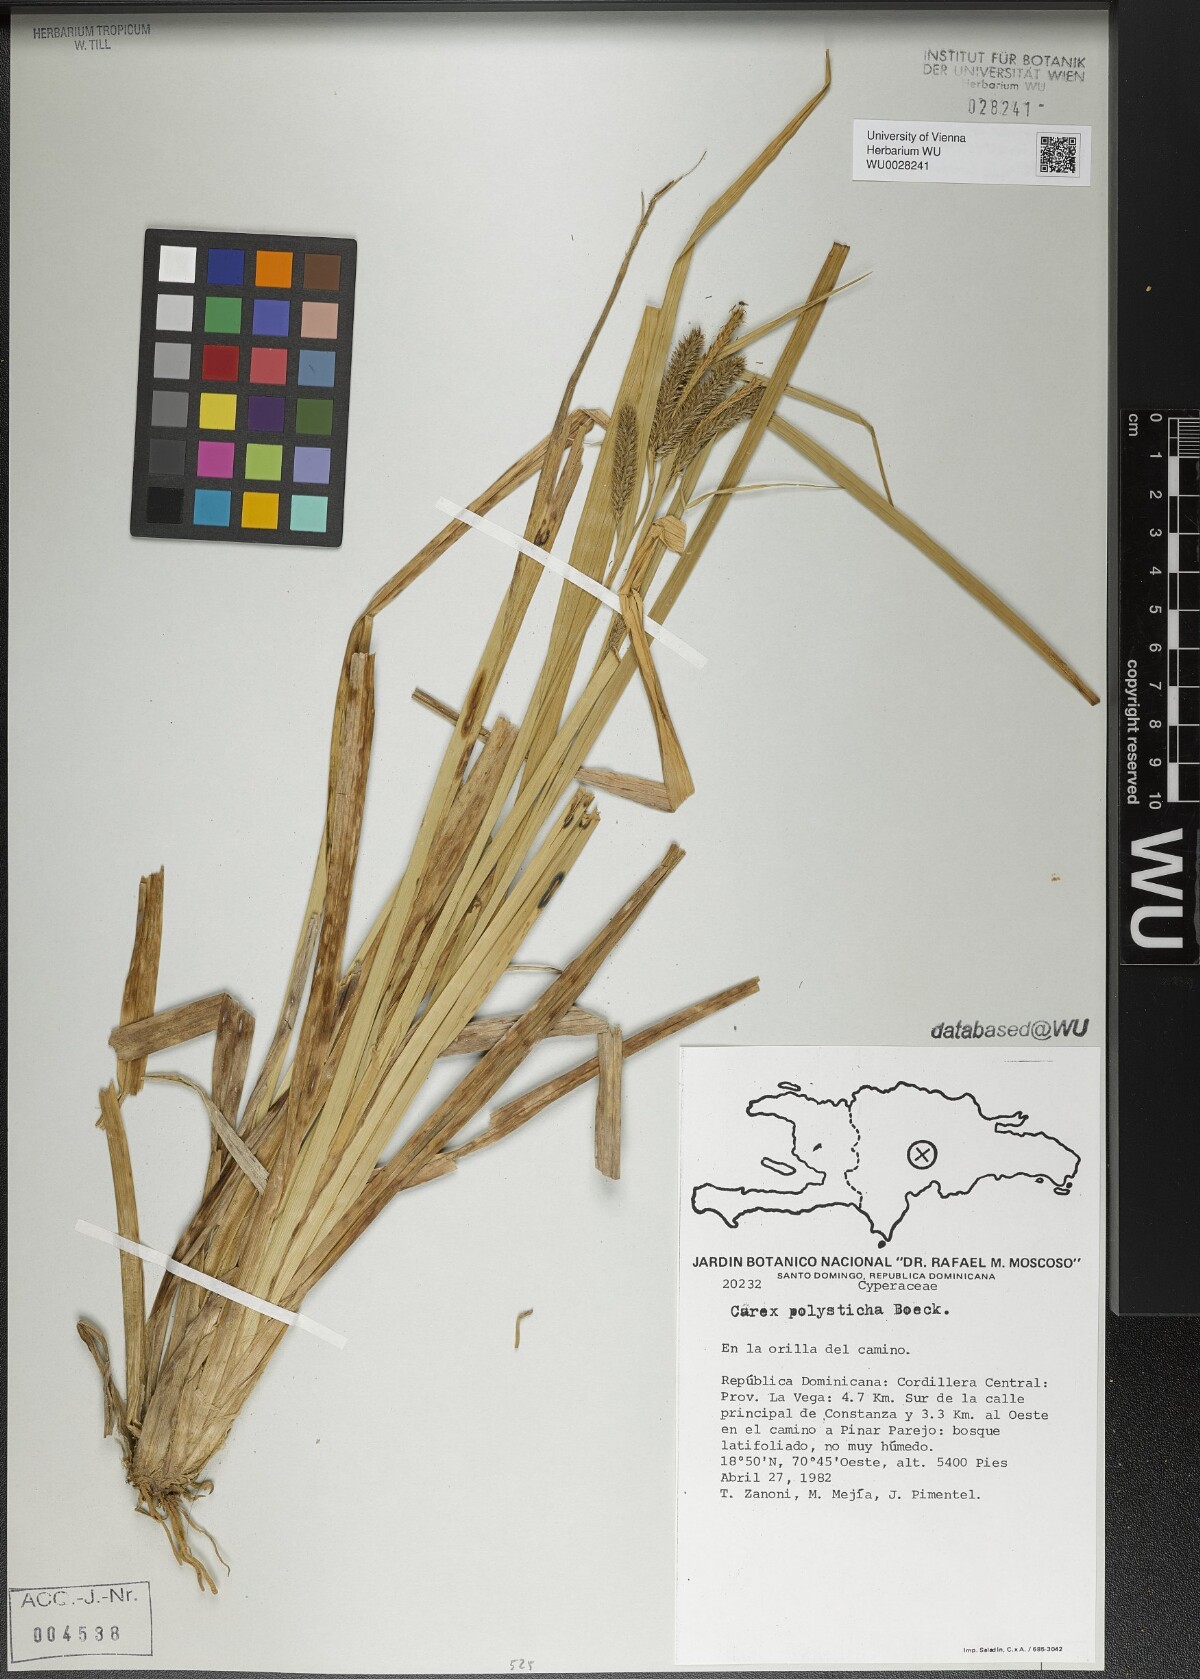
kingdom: Plantae
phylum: Tracheophyta
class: Liliopsida
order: Poales
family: Cyperaceae
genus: Carex
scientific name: Carex polysticha
